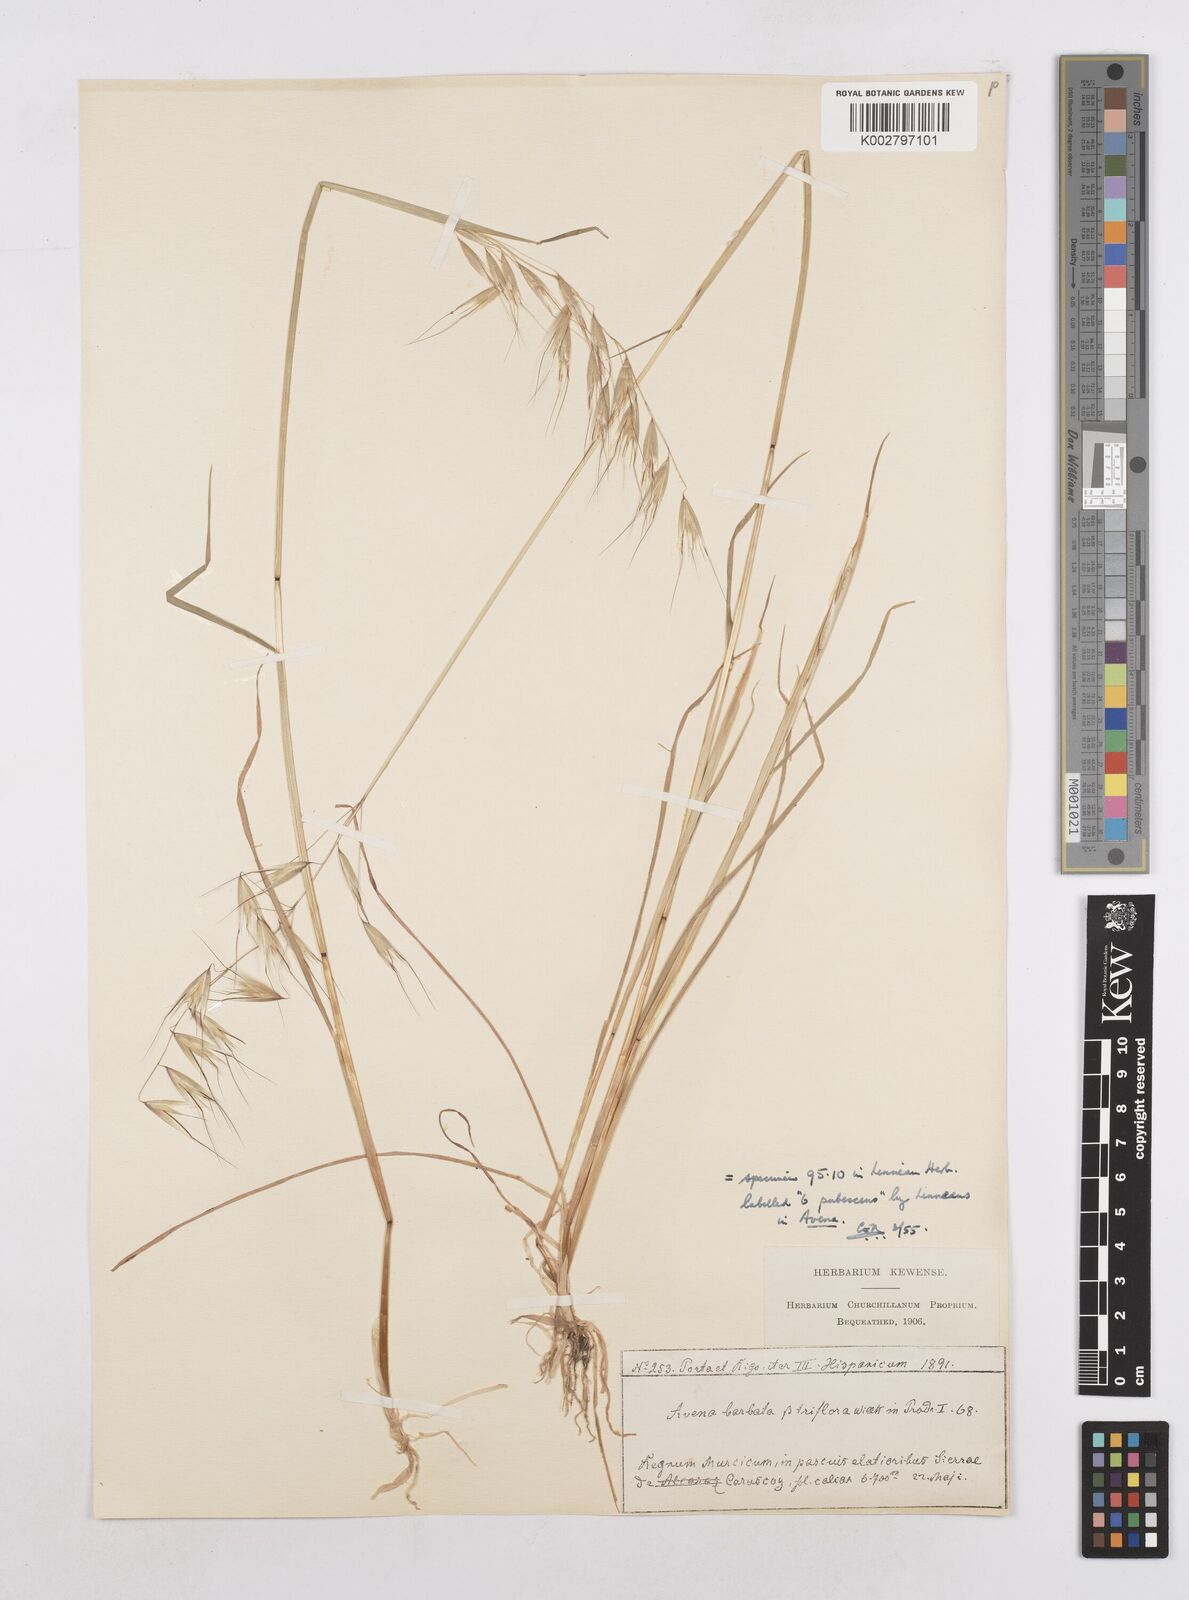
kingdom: Plantae
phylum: Tracheophyta
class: Liliopsida
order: Poales
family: Poaceae
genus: Avena
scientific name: Avena
